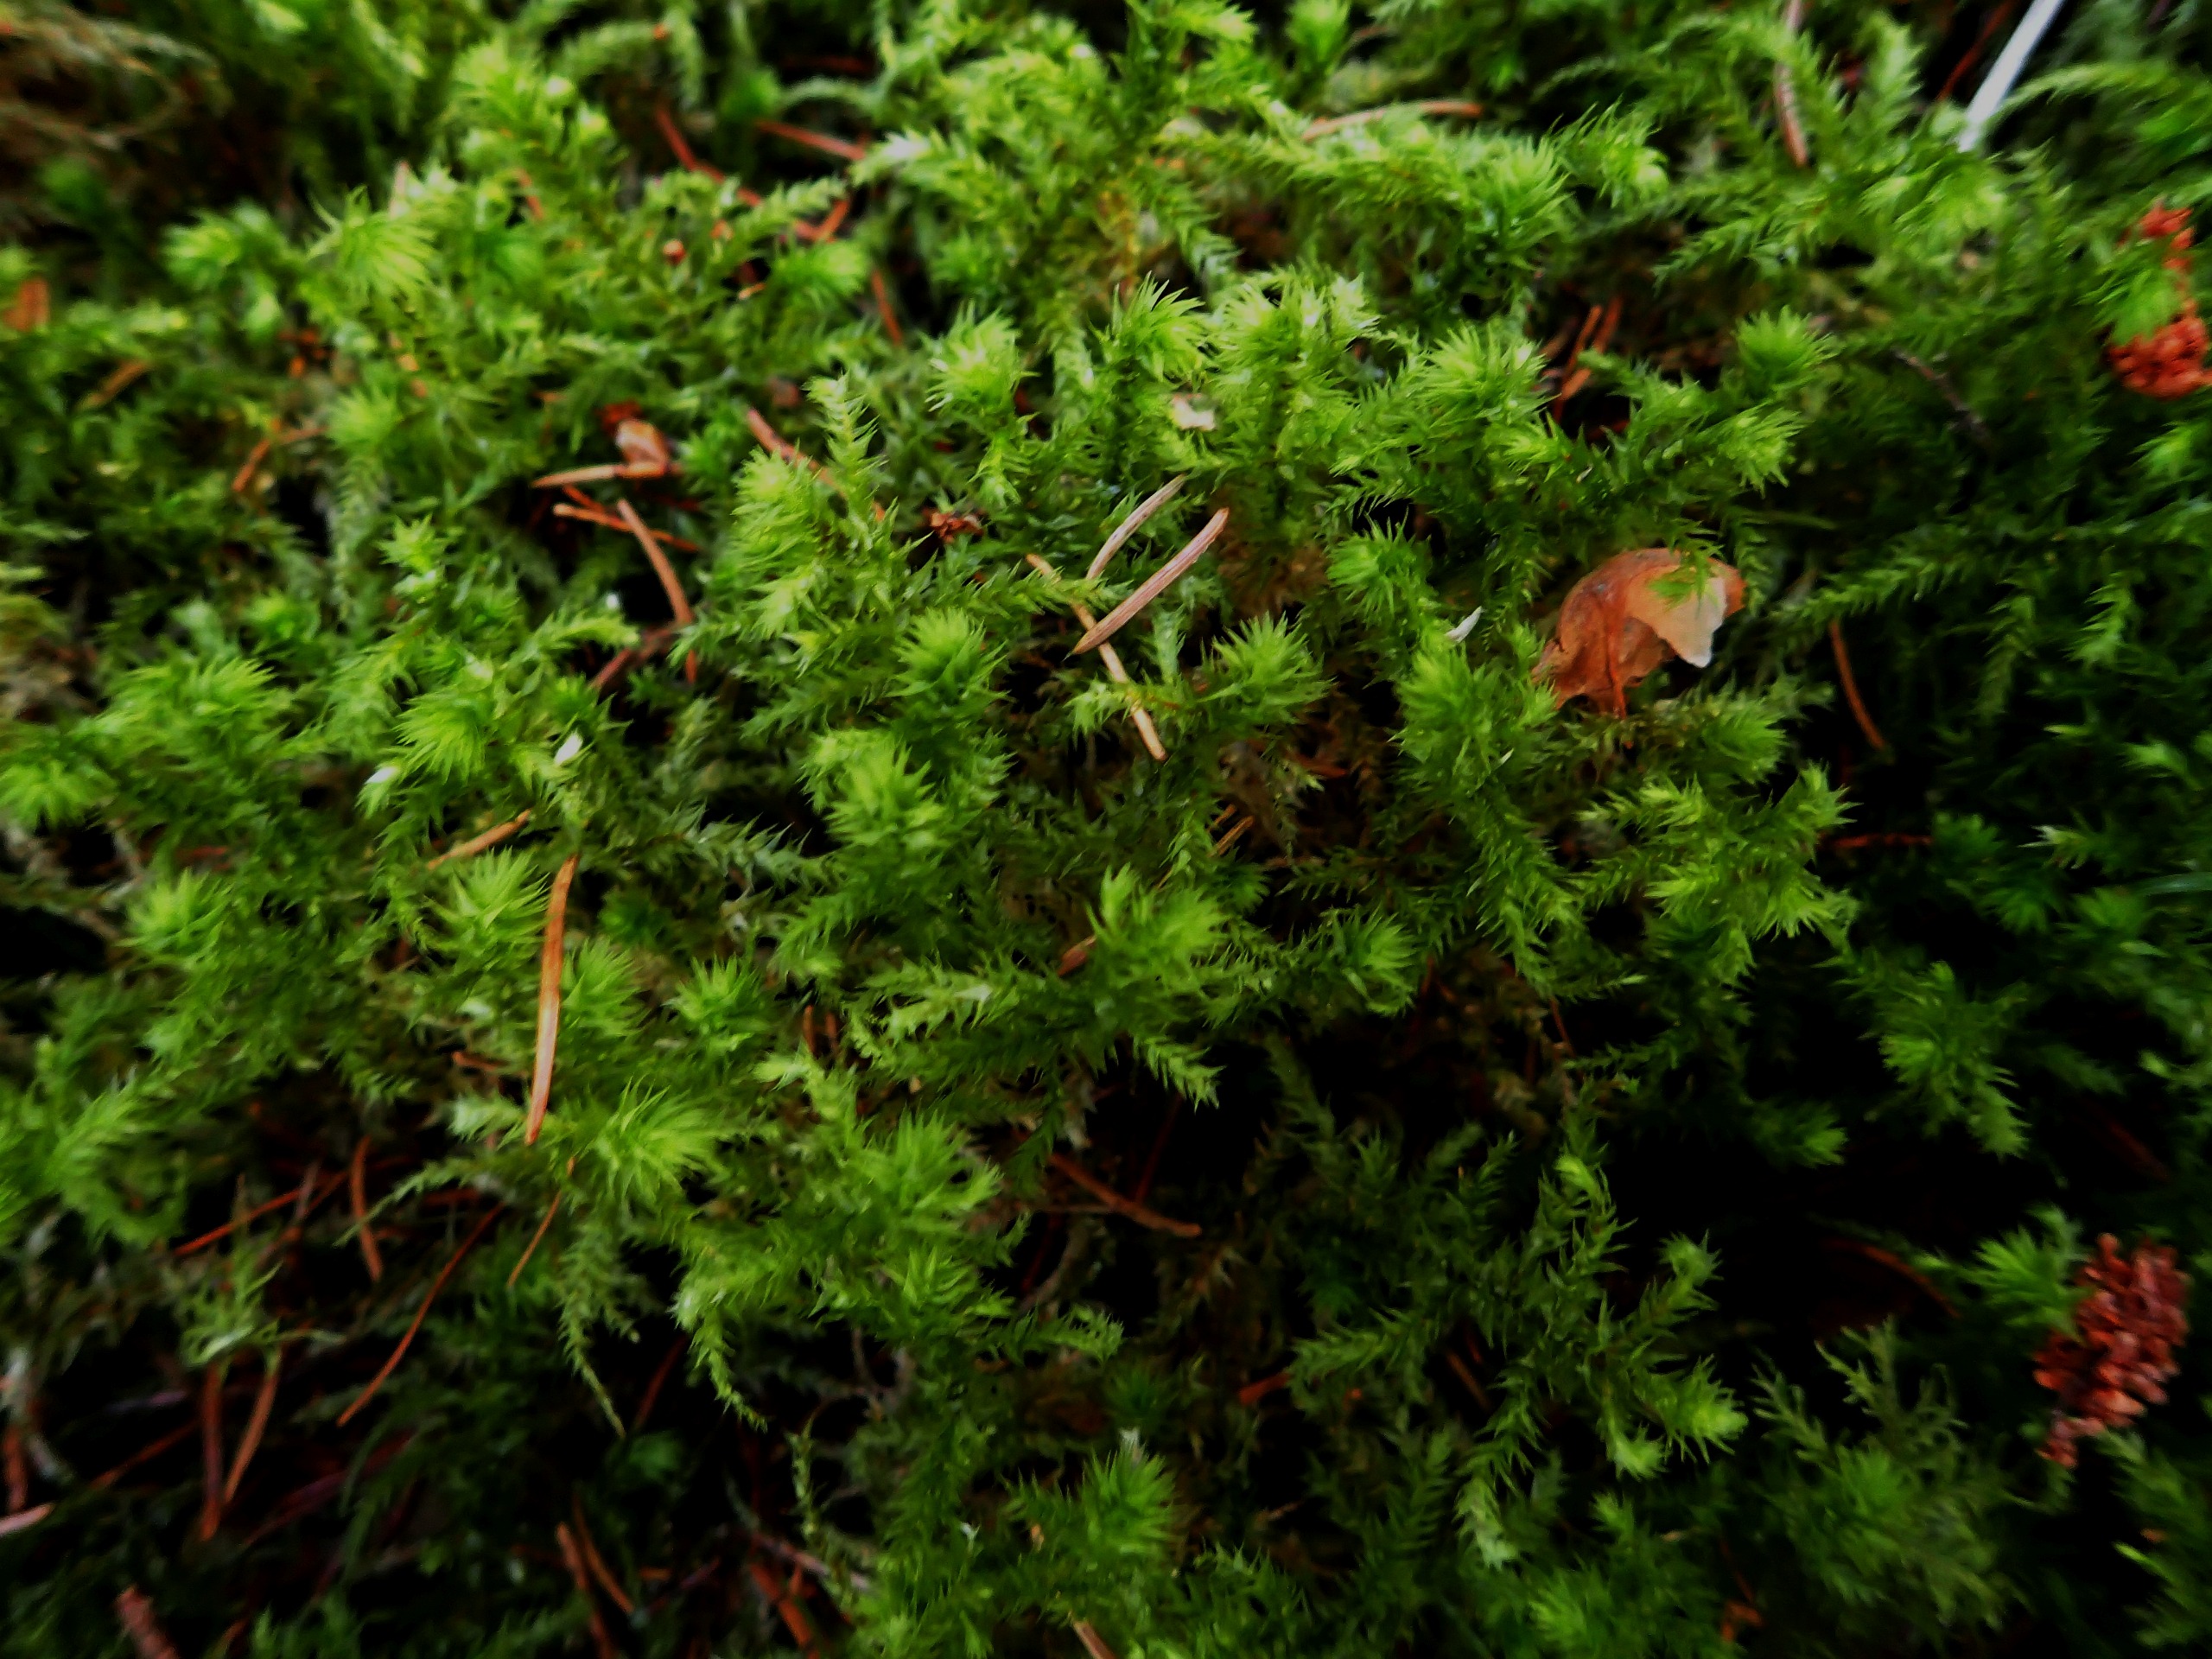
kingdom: Plantae
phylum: Bryophyta
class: Bryopsida
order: Hypnales
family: Hylocomiaceae
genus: Hylocomiadelphus
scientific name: Hylocomiadelphus triquetrus
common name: Stor kransemos
